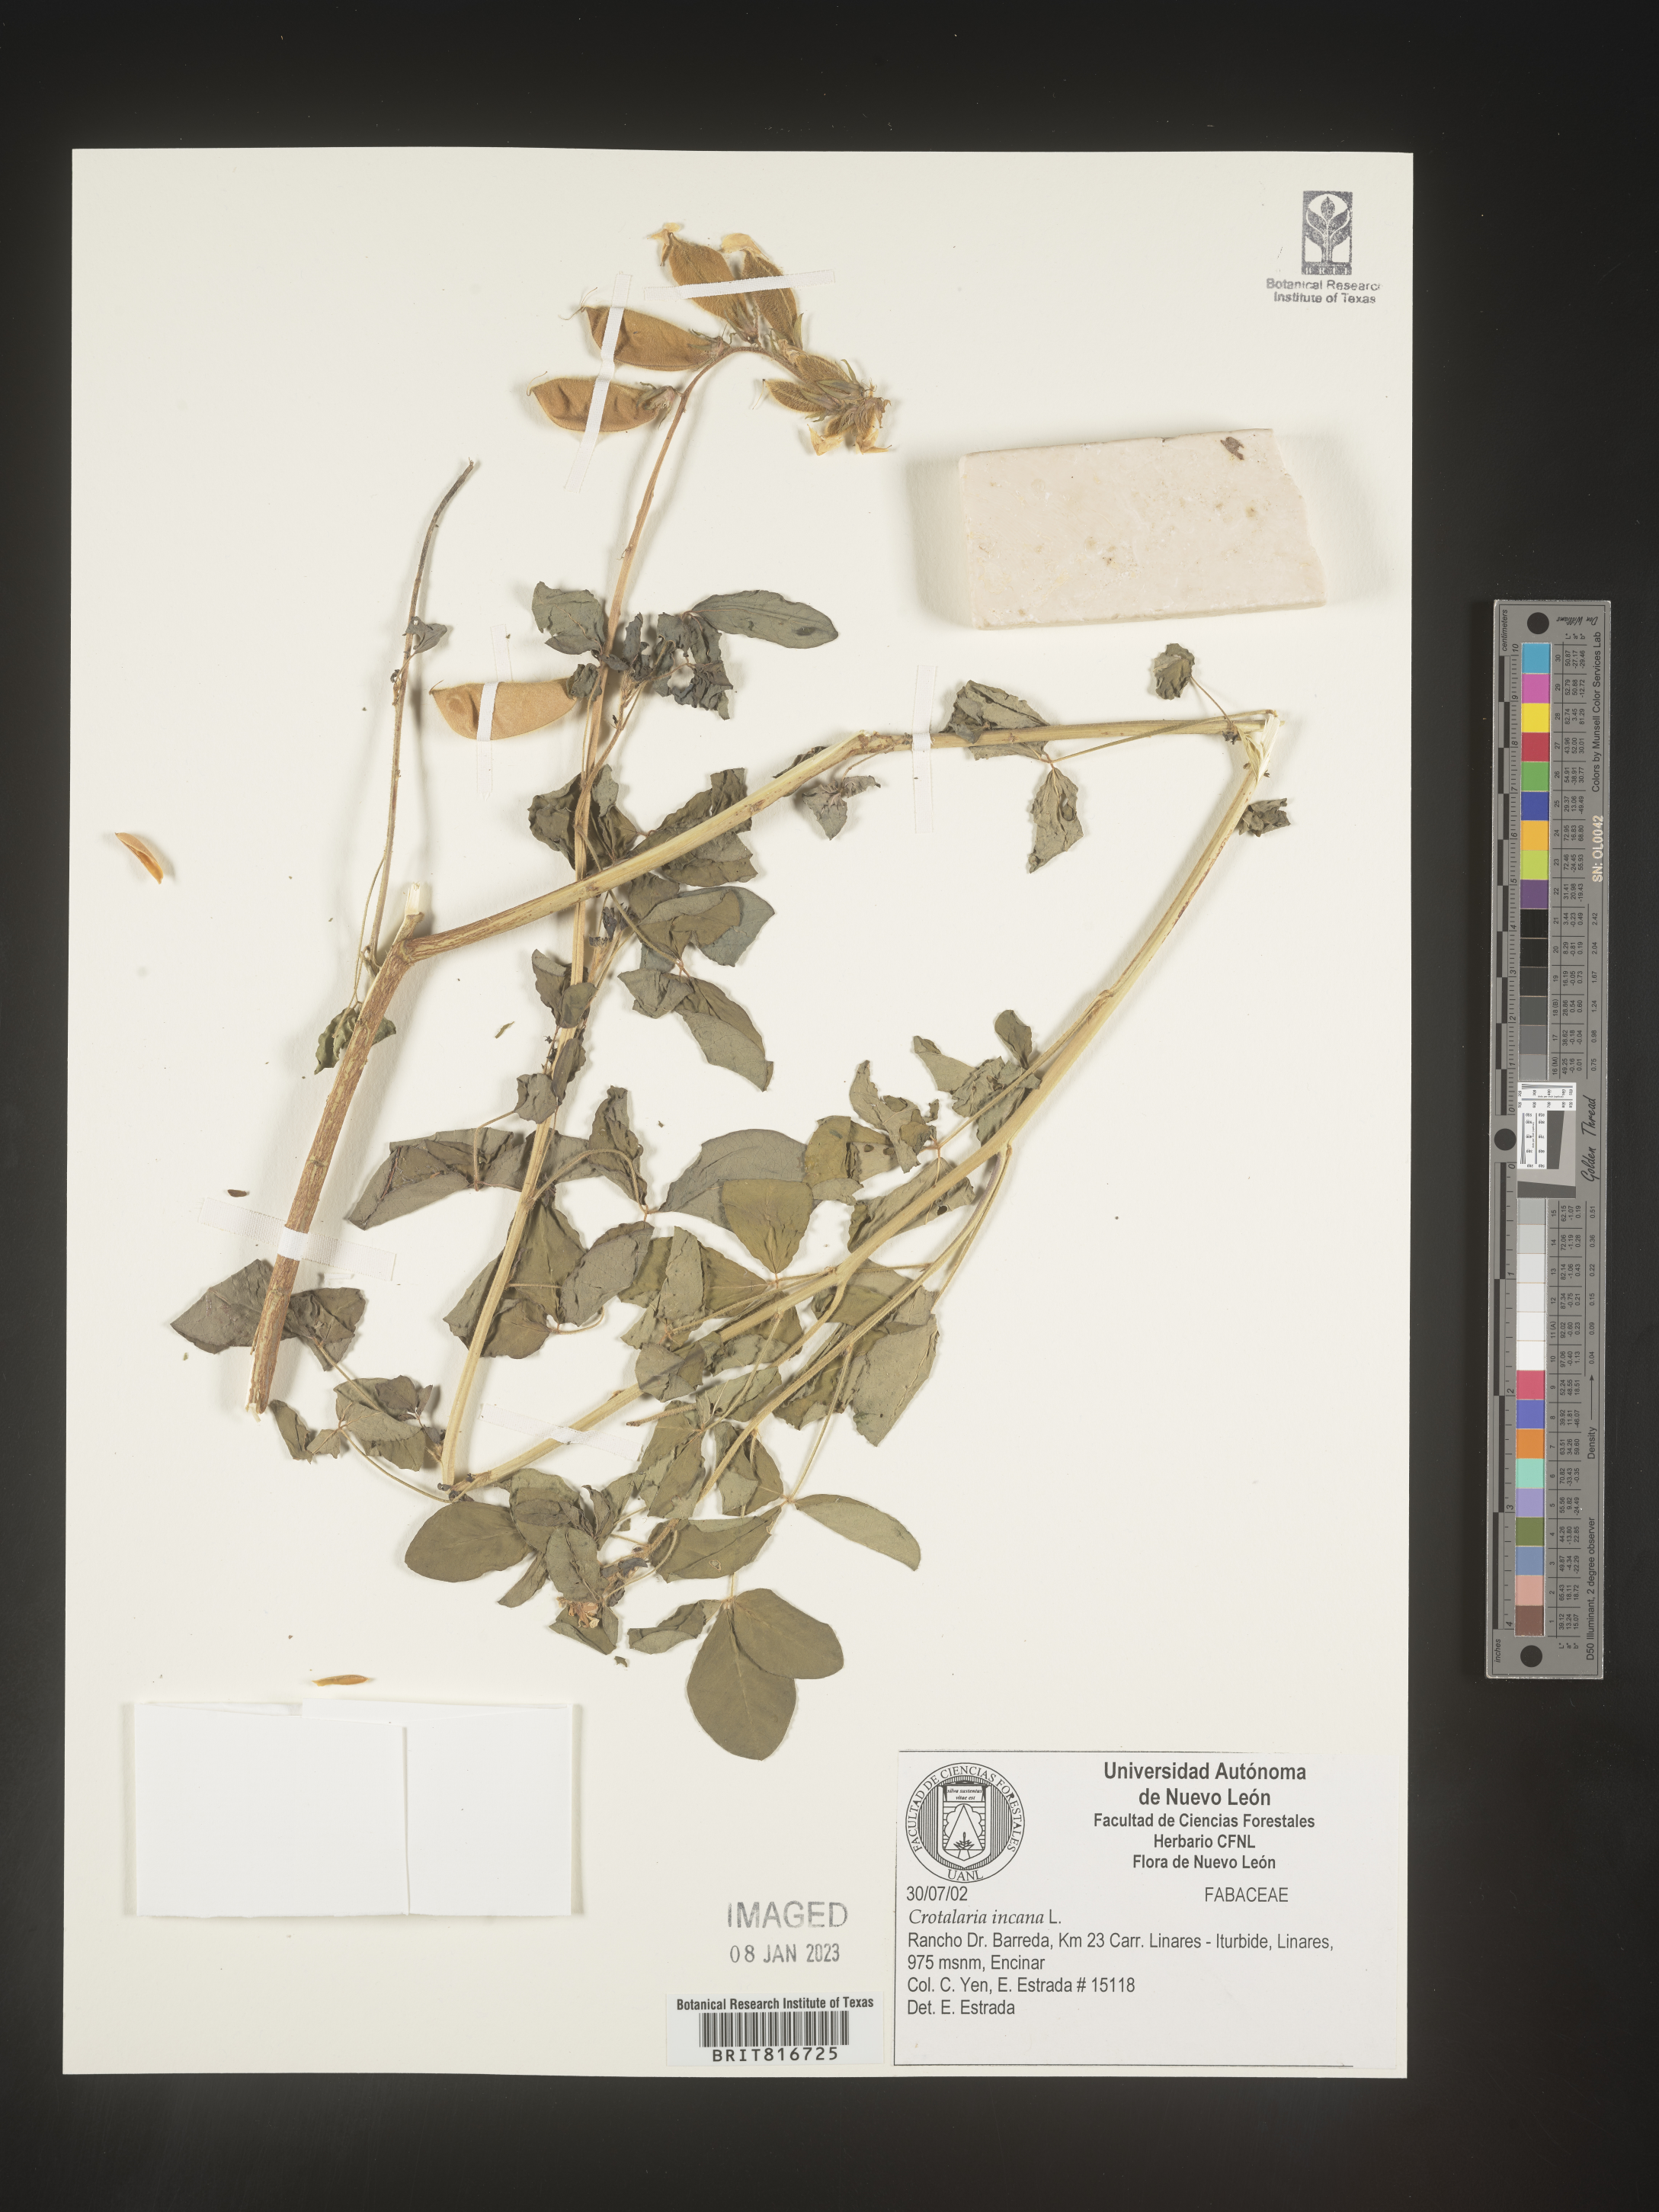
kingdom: Plantae
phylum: Tracheophyta
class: Magnoliopsida
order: Fabales
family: Fabaceae
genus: Crotalaria
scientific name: Crotalaria
